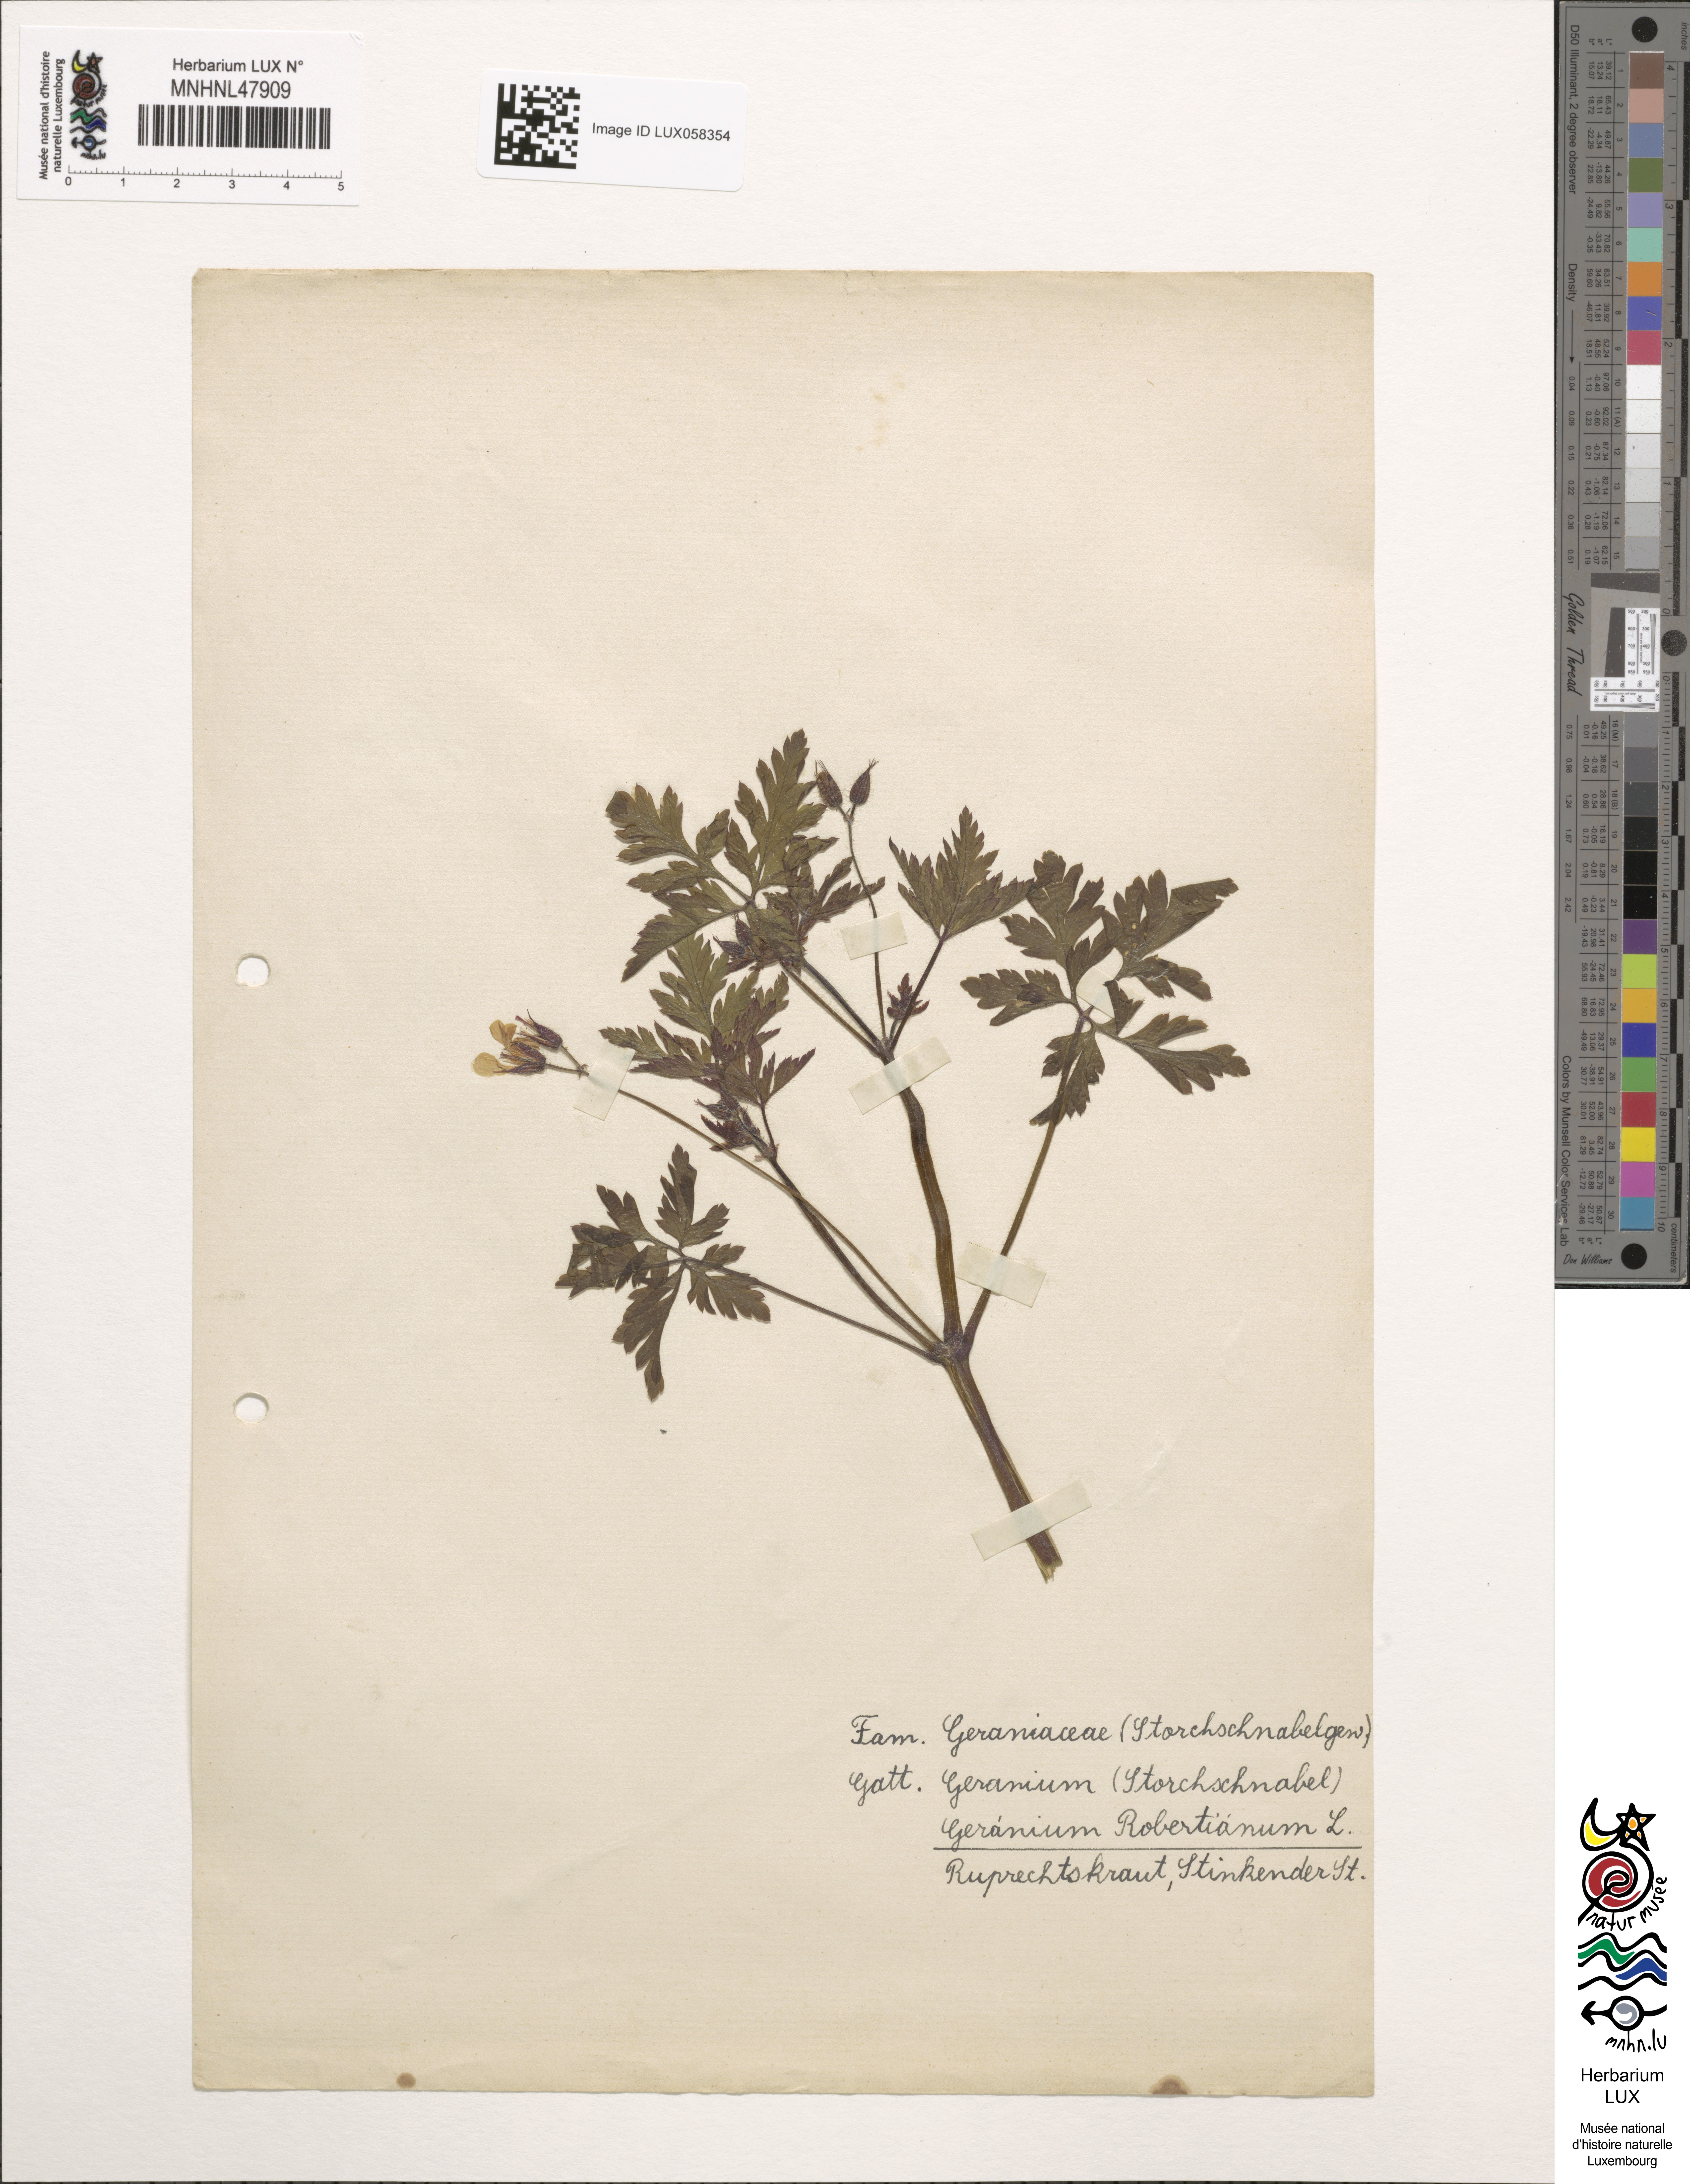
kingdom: Plantae
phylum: Tracheophyta
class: Magnoliopsida
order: Geraniales
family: Geraniaceae
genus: Geranium
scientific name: Geranium robertianum
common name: Herb-robert
